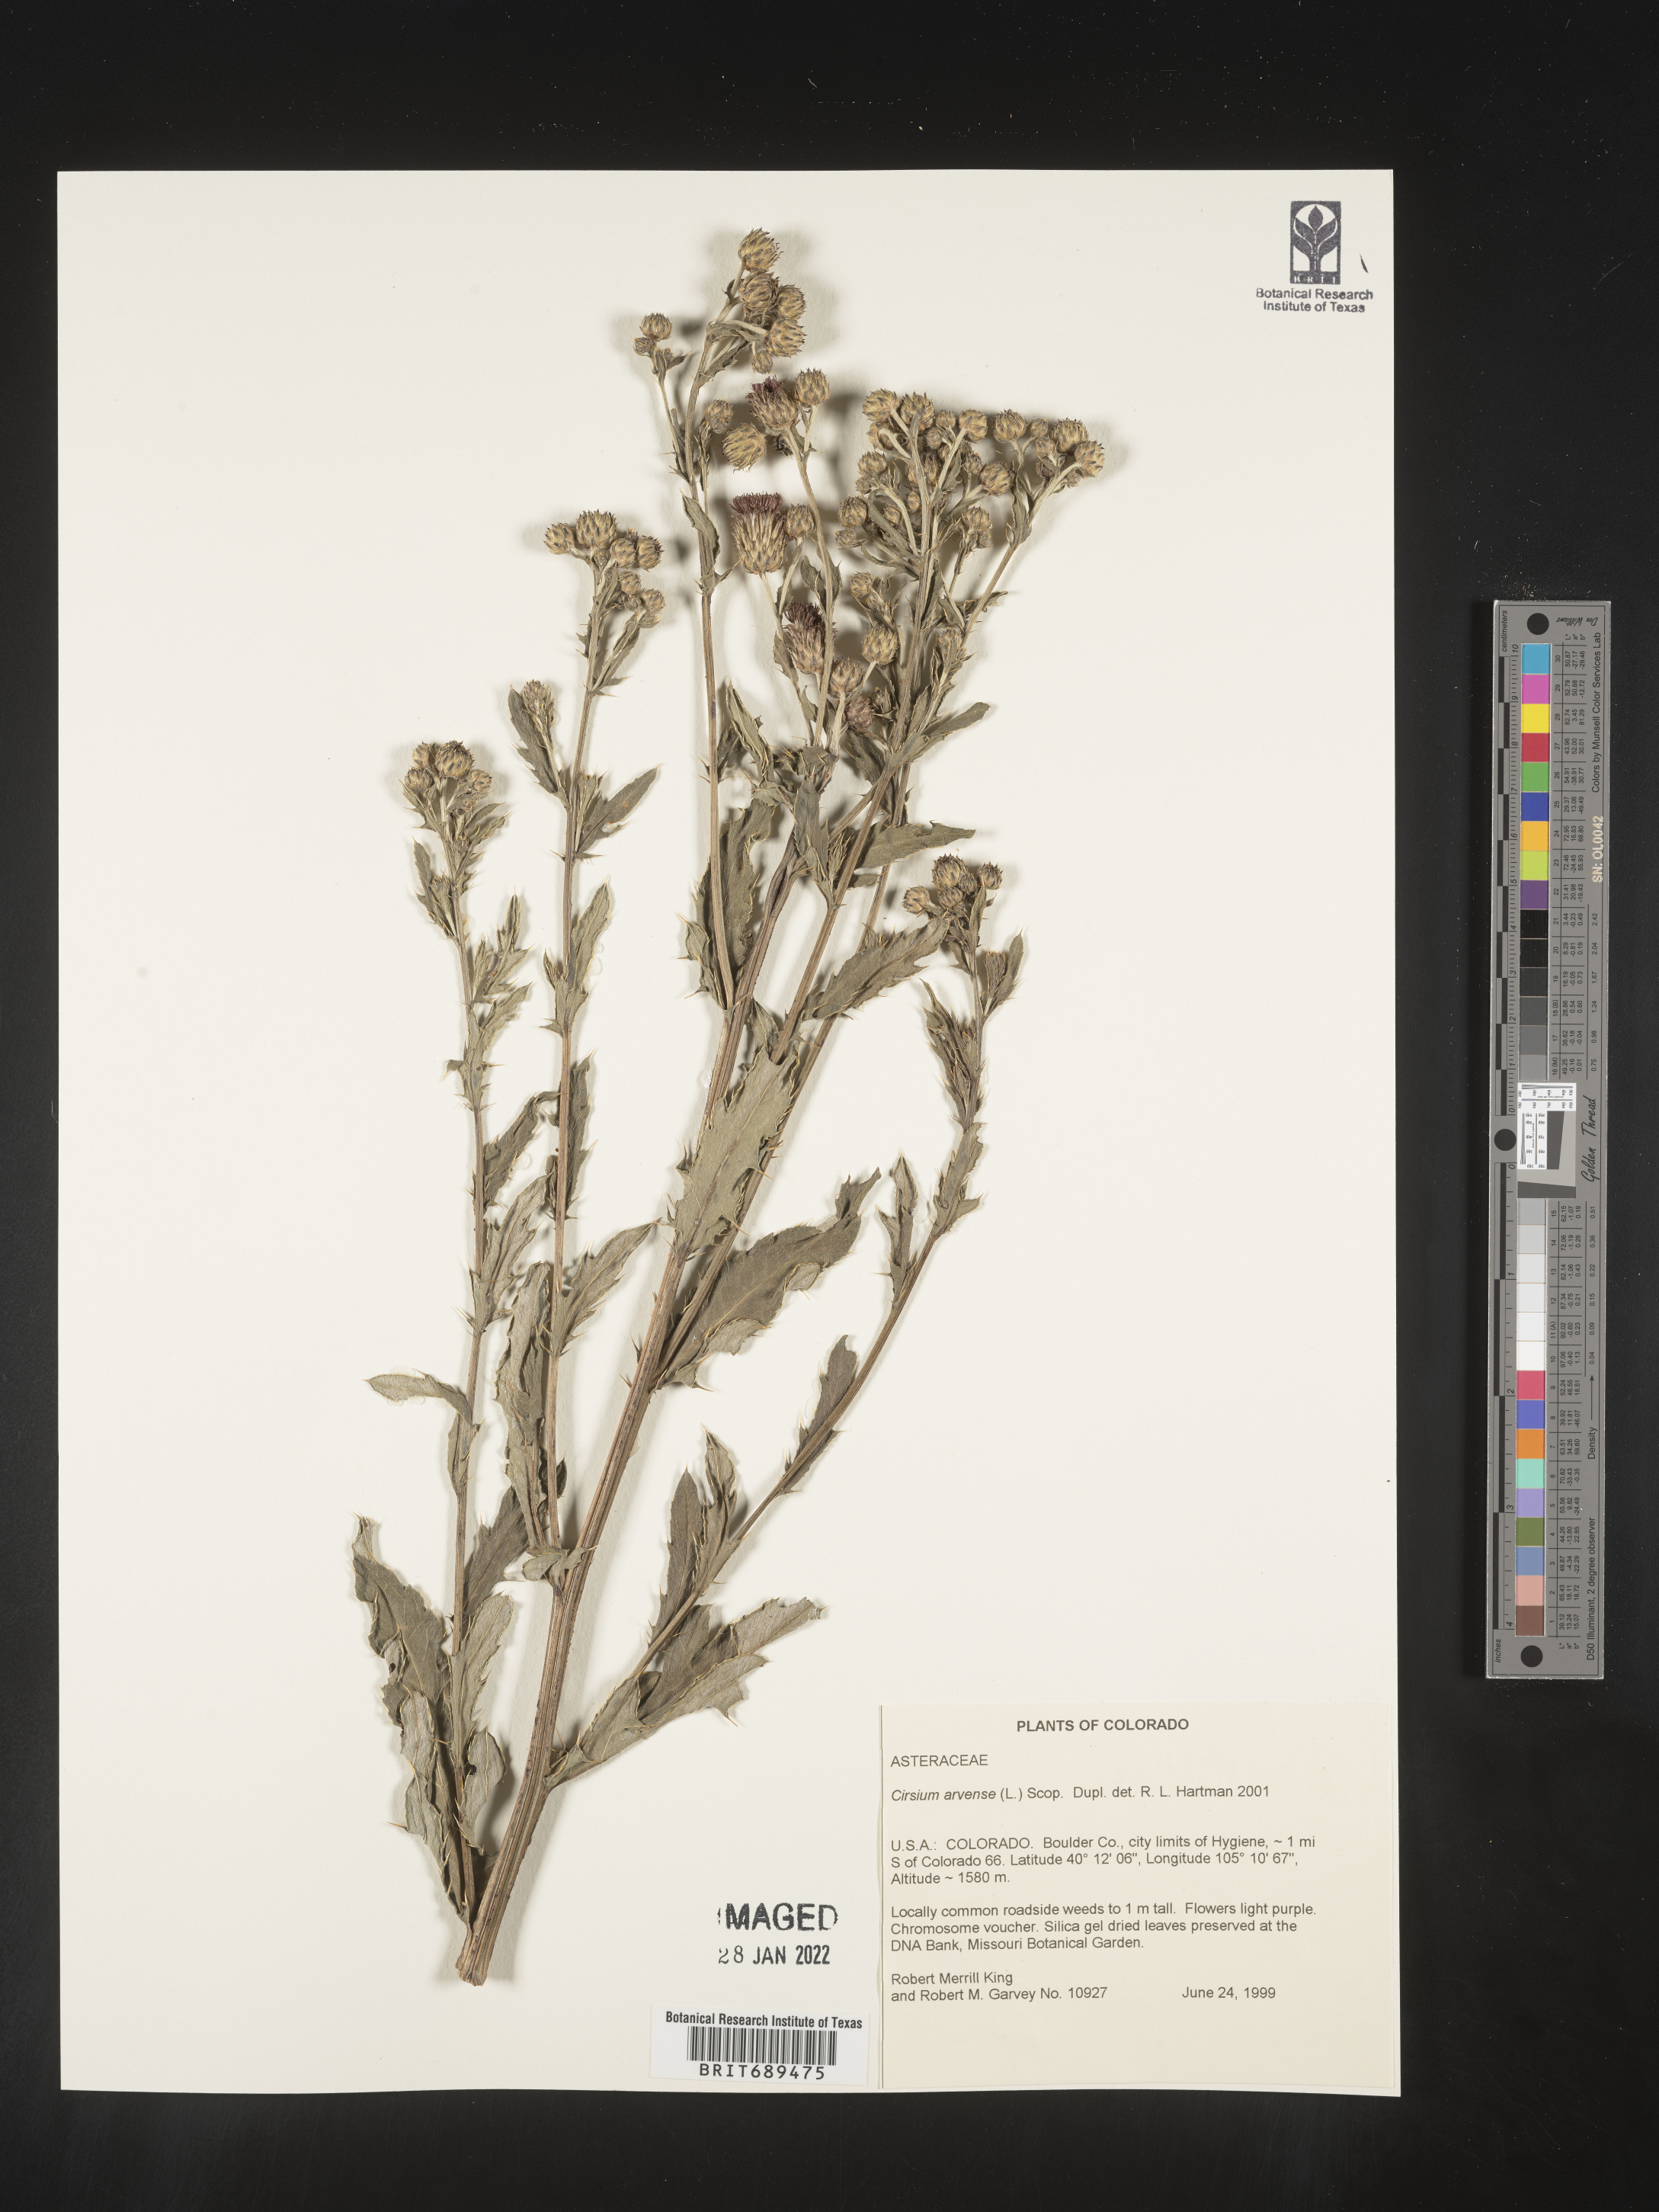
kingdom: Plantae
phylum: Tracheophyta
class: Magnoliopsida
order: Asterales
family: Asteraceae
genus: Cirsium
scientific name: Cirsium arvense
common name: Creeping thistle
